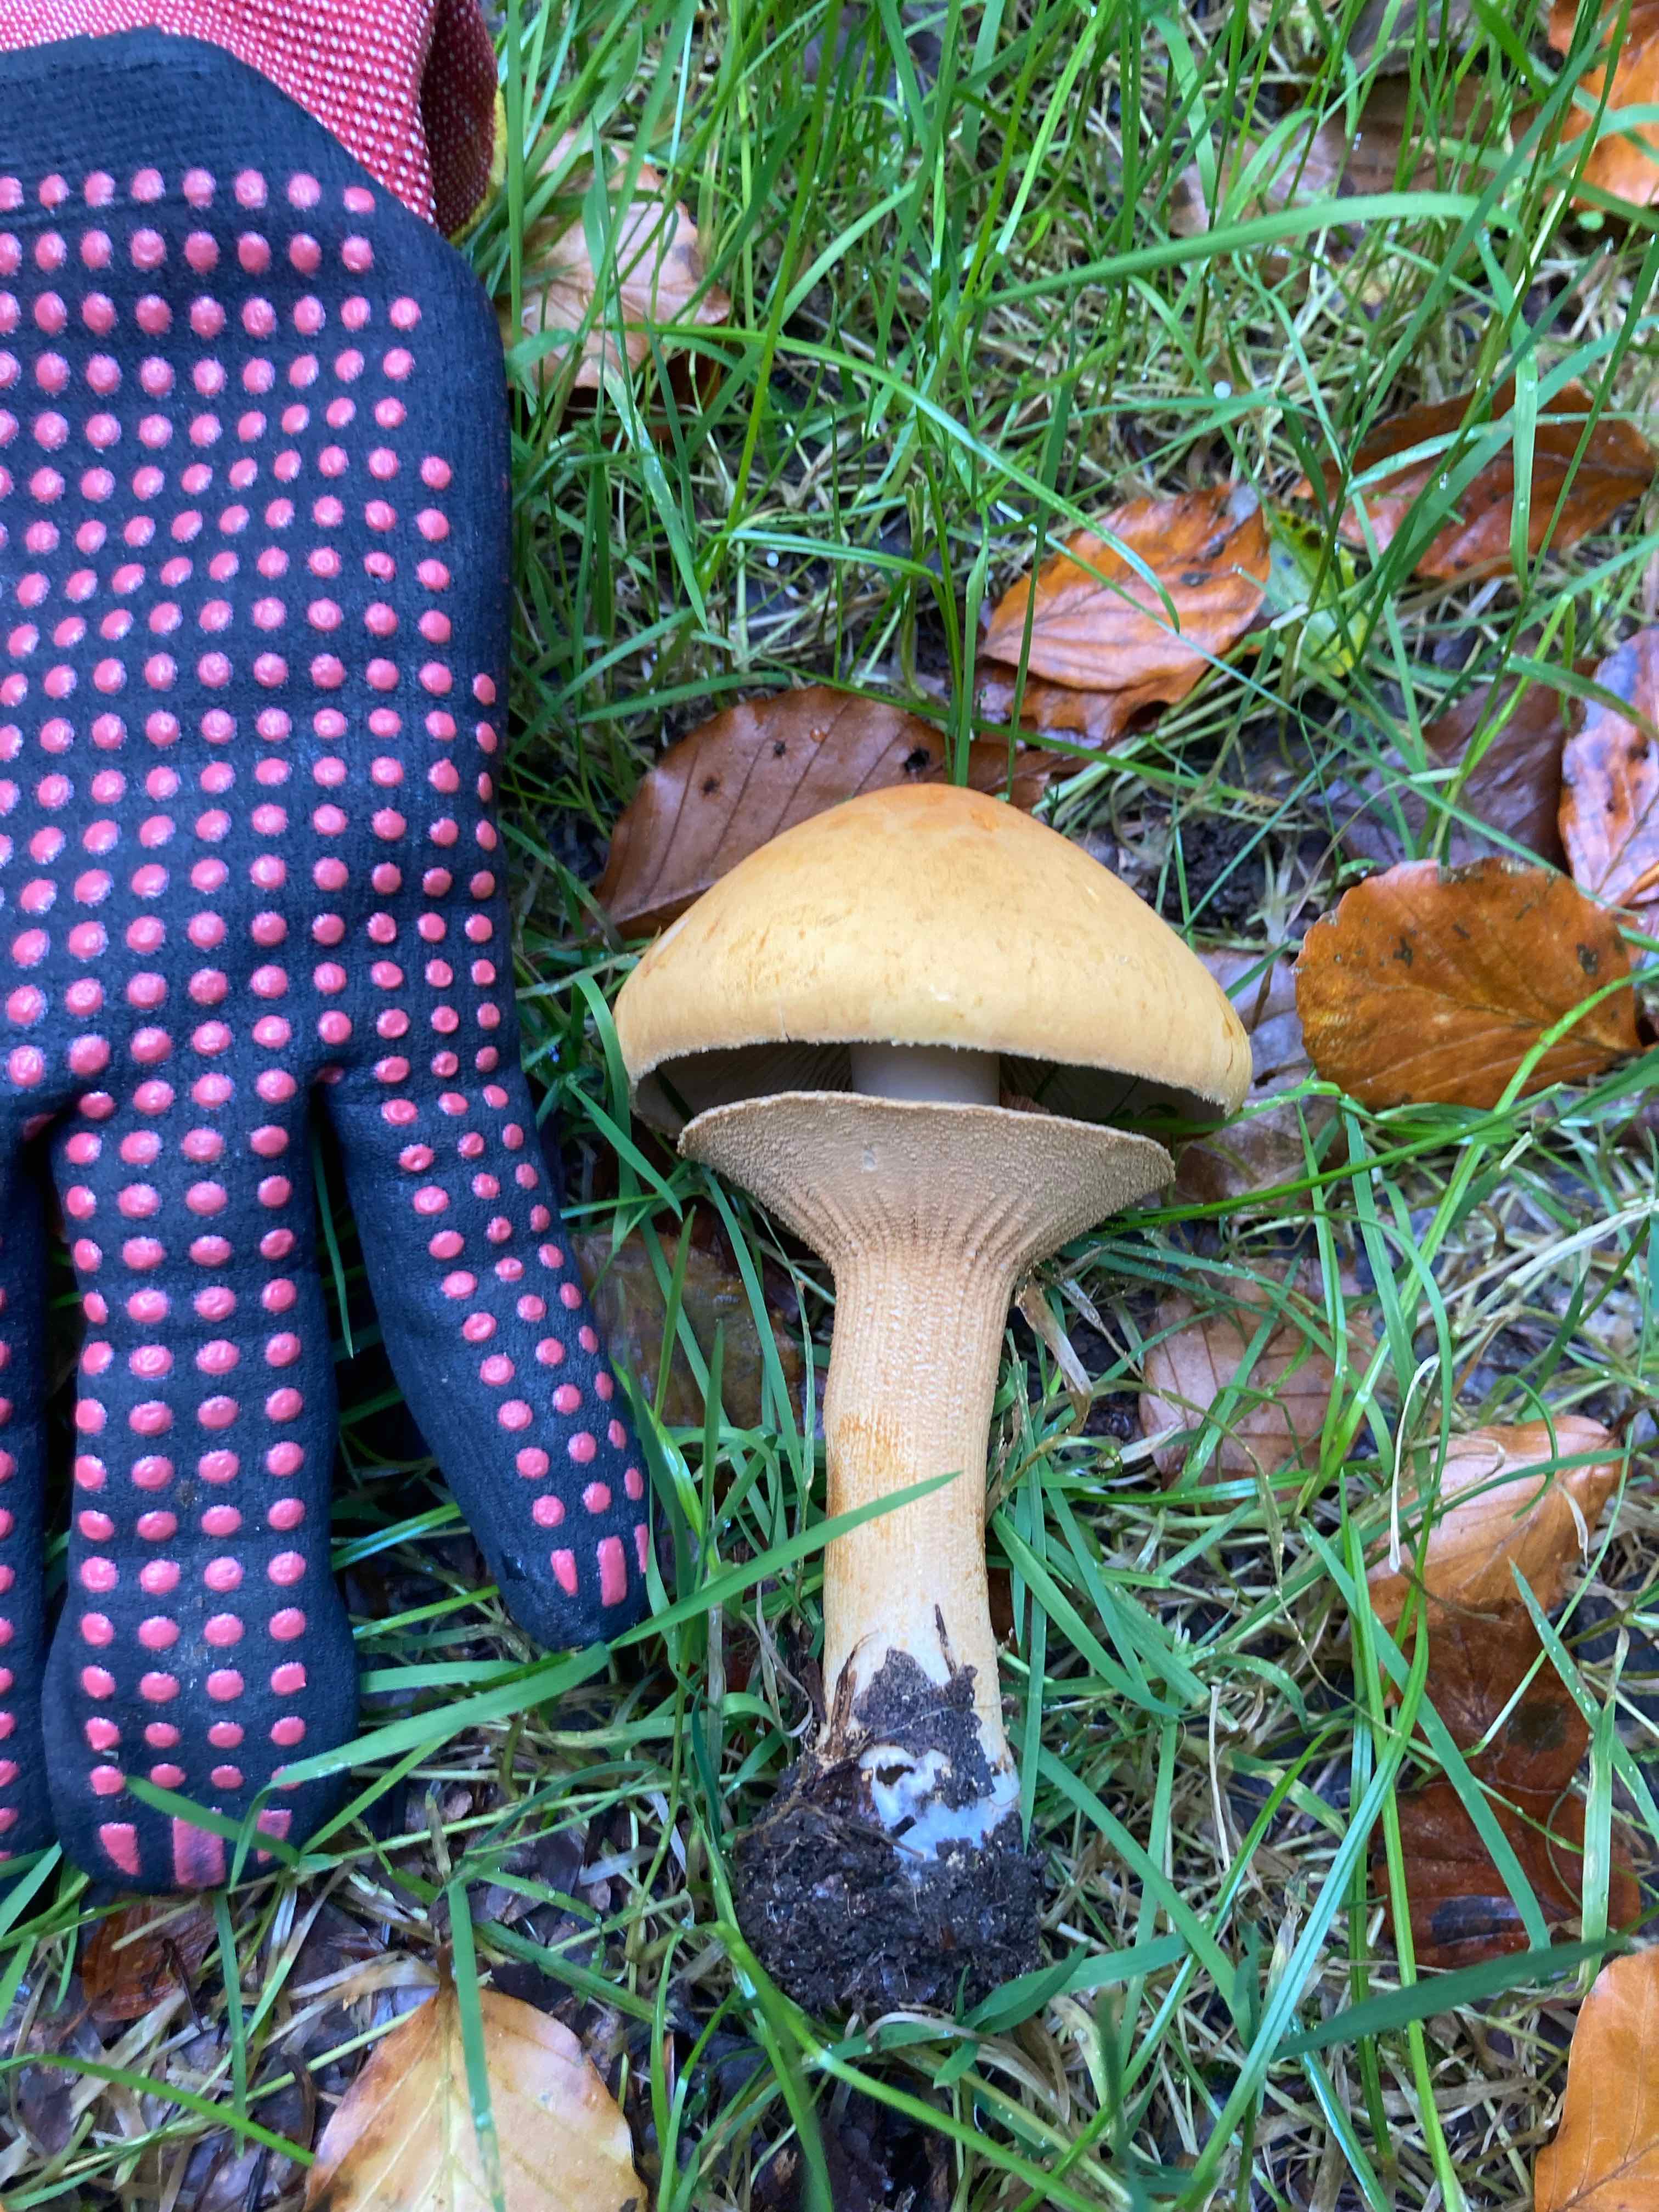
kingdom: Fungi
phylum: Basidiomycota
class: Agaricomycetes
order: Agaricales
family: Tricholomataceae
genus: Phaeolepiota
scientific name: Phaeolepiota aurea
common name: gyldenhat
